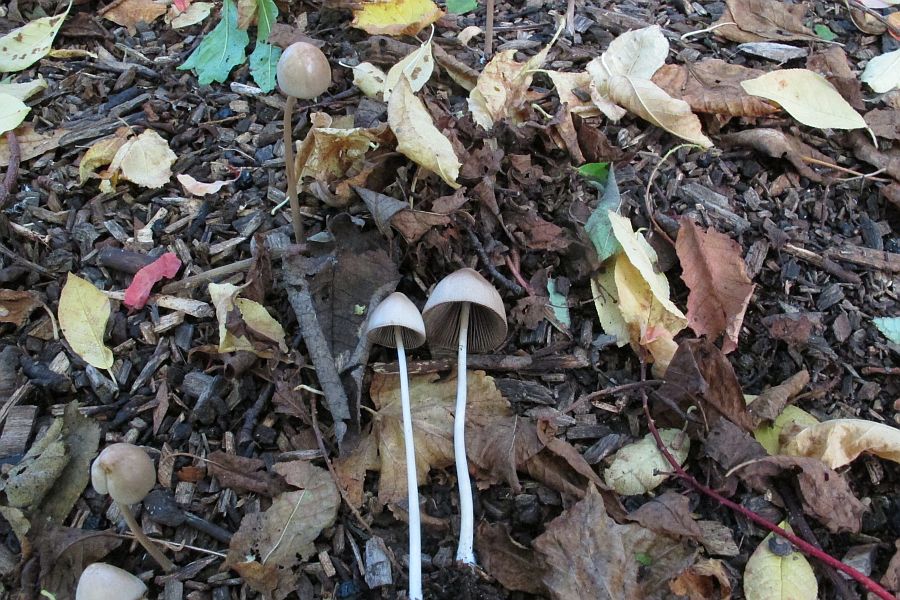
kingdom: Fungi
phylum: Basidiomycota
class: Agaricomycetes
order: Agaricales
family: Psathyrellaceae
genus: Parasola
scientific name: Parasola conopilea
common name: kegle-hjulhat
